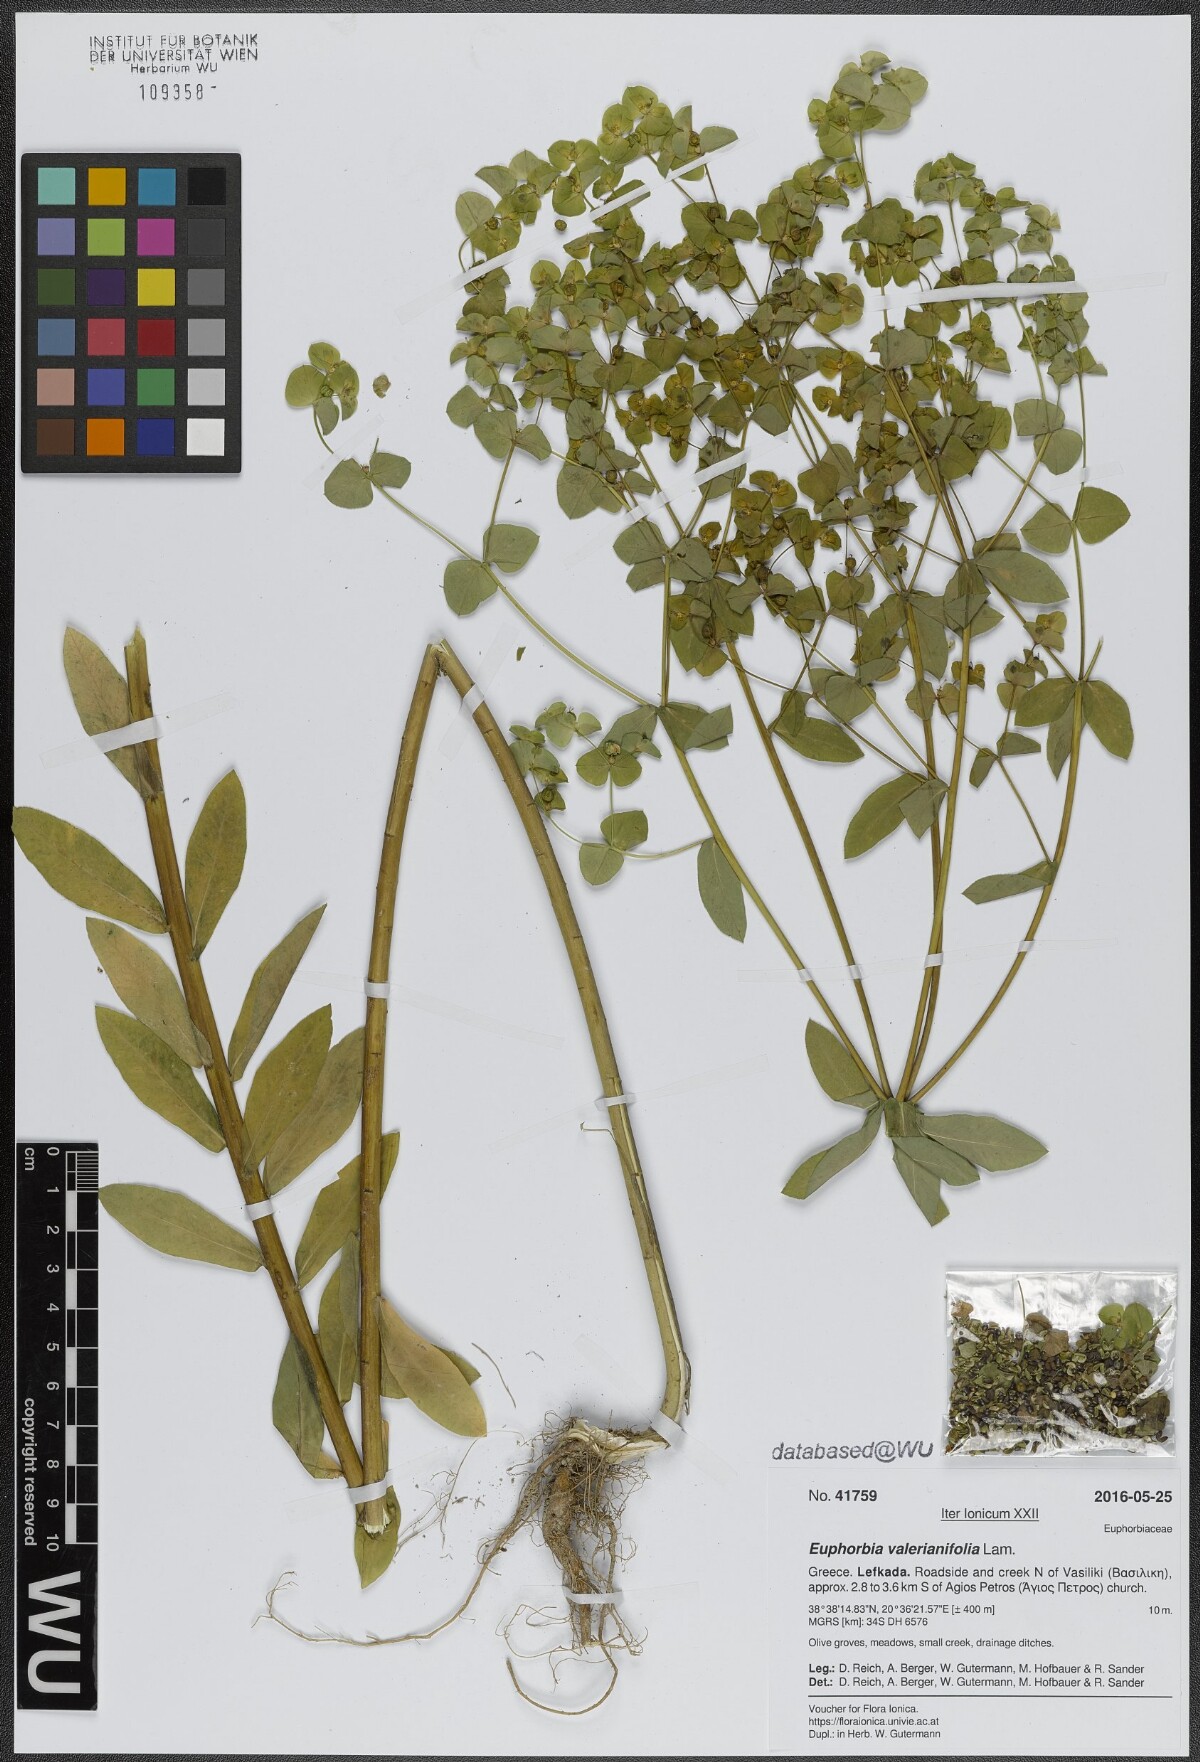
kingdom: Plantae
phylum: Tracheophyta
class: Magnoliopsida
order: Malpighiales
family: Euphorbiaceae
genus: Euphorbia
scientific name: Euphorbia platyphyllos
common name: Broad-leaved spurge
